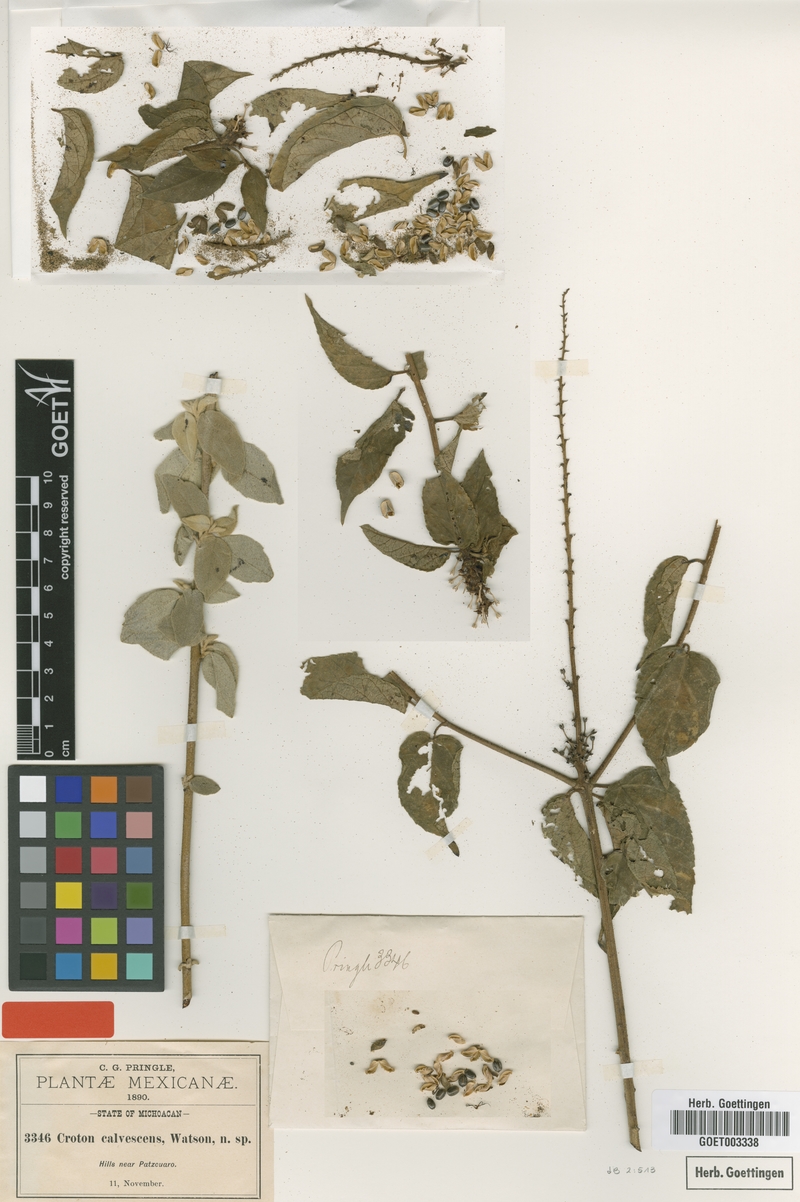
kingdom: Plantae
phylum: Tracheophyta
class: Magnoliopsida
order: Malpighiales
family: Euphorbiaceae
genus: Croton
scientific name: Croton adspersus
